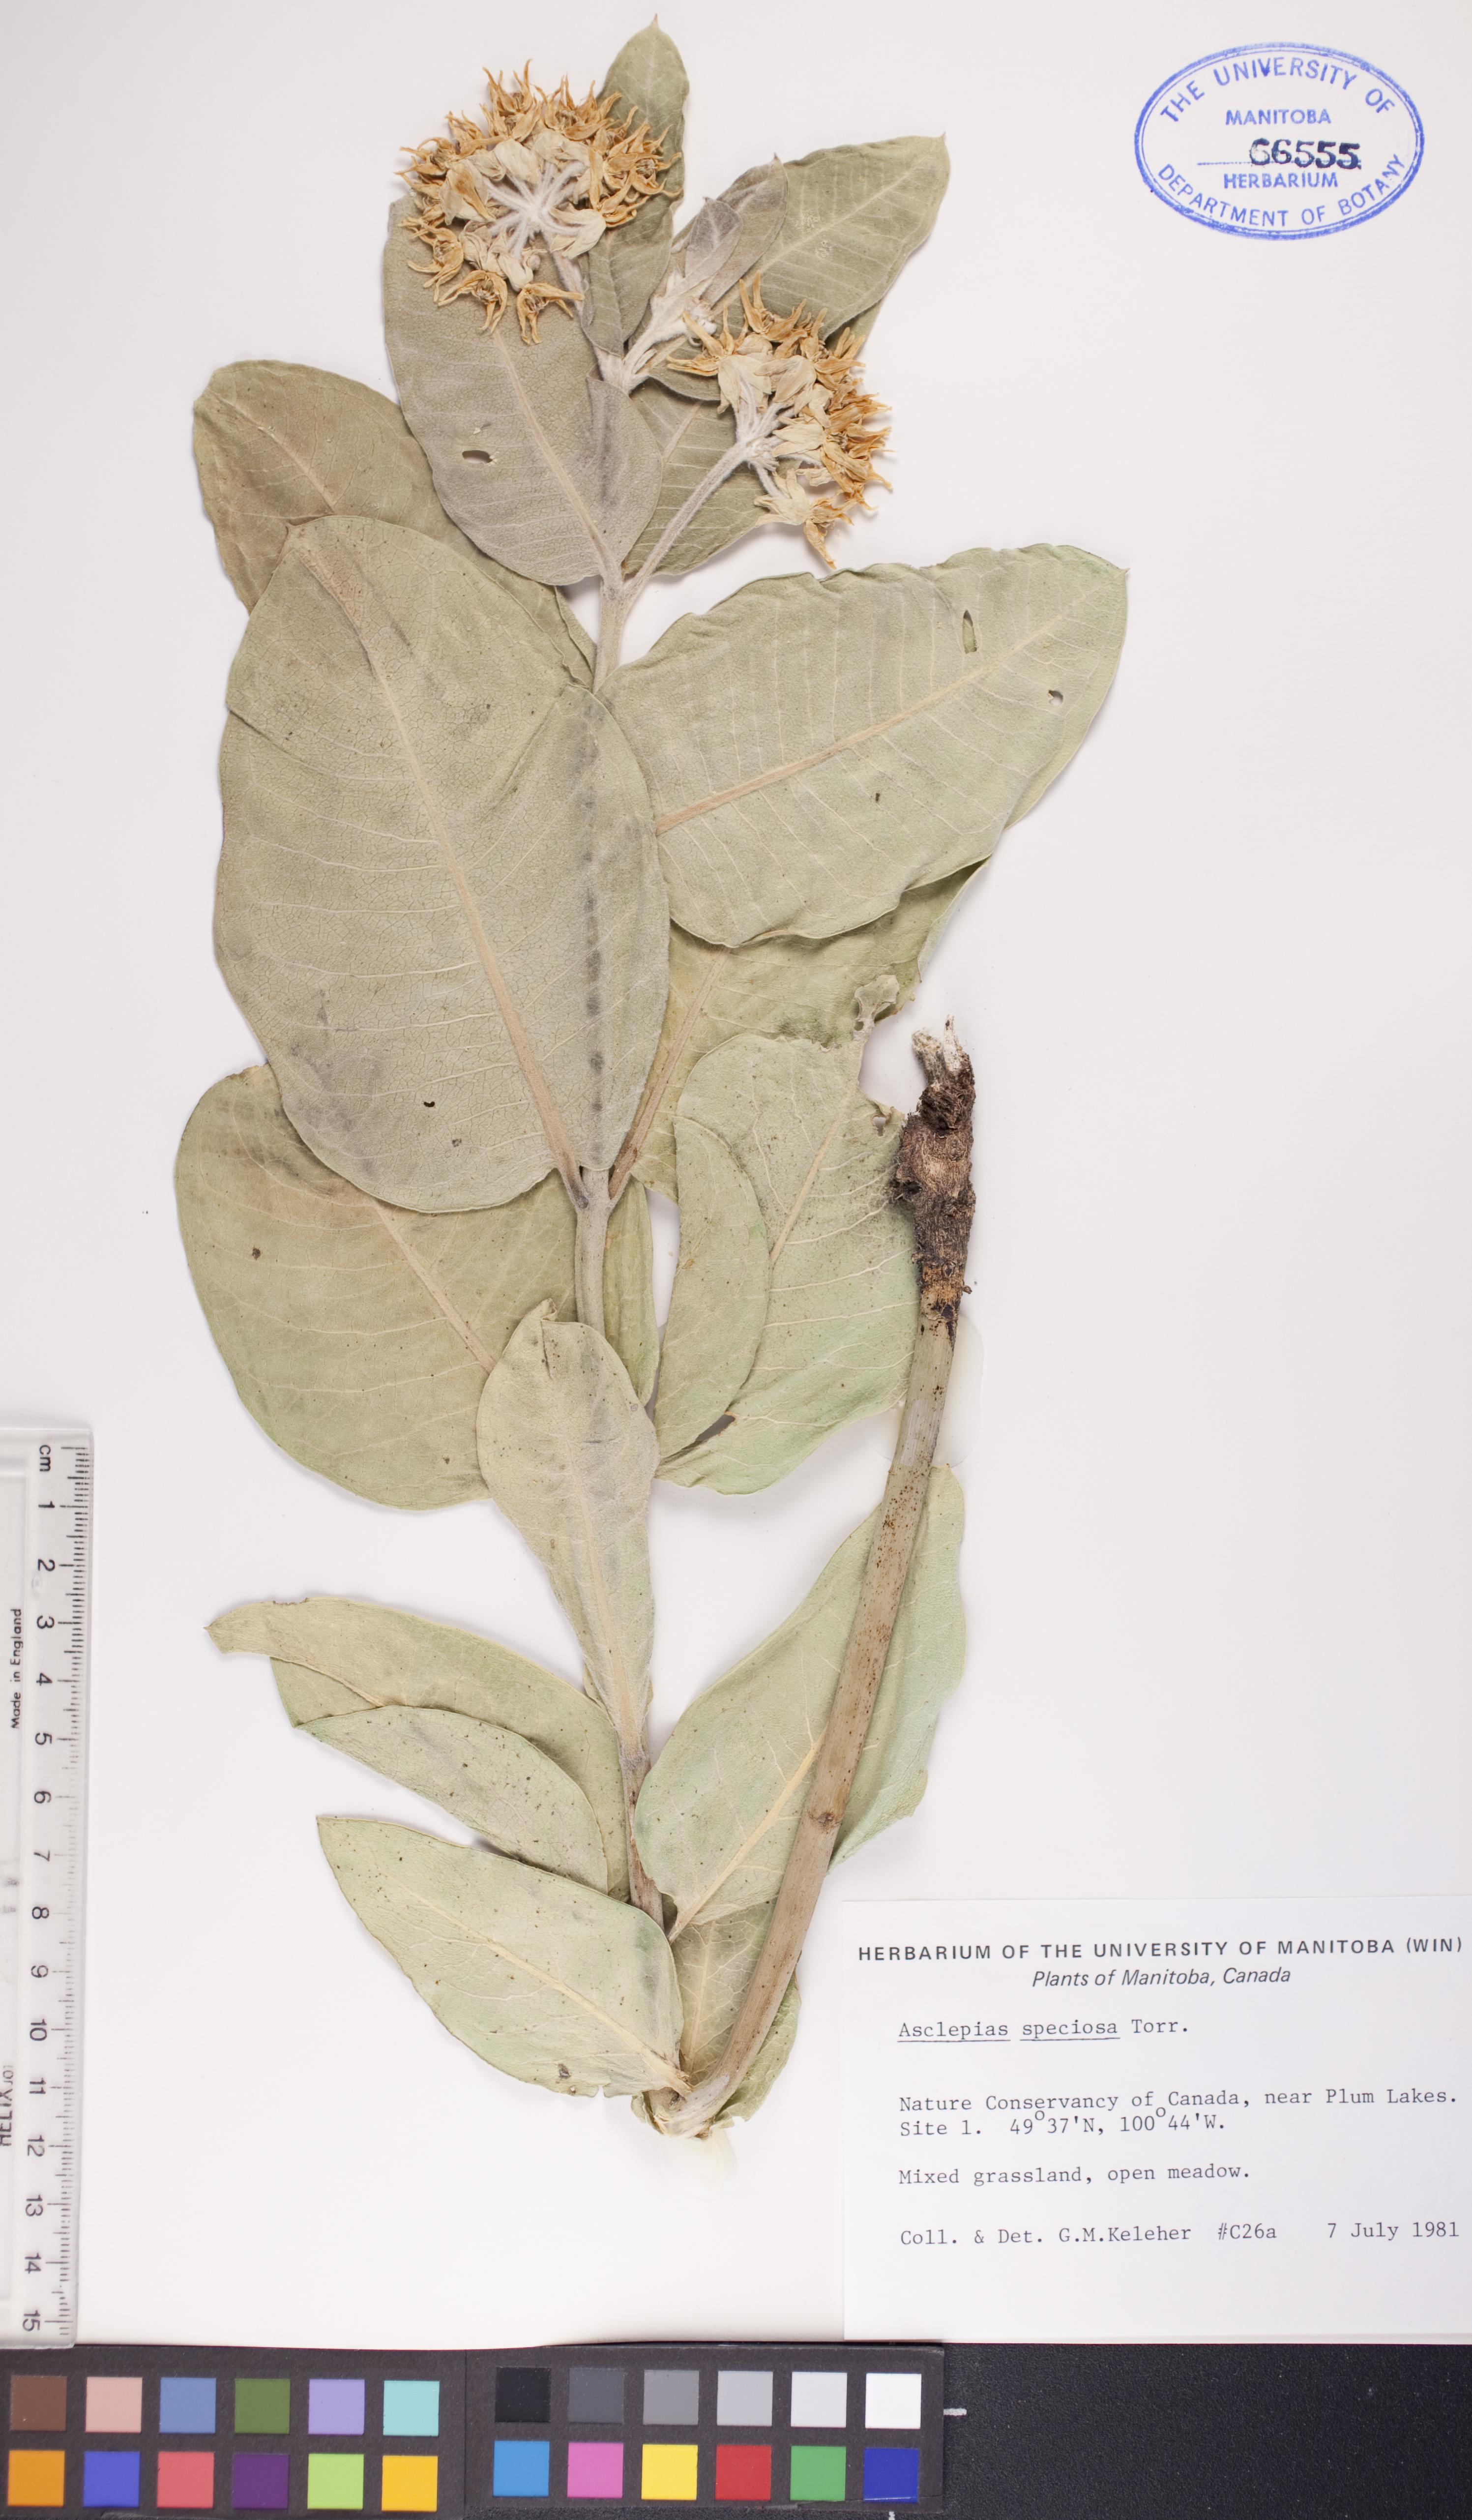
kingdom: Plantae
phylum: Tracheophyta
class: Magnoliopsida
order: Gentianales
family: Apocynaceae
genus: Asclepias
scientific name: Asclepias speciosa
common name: Showy milkweed
